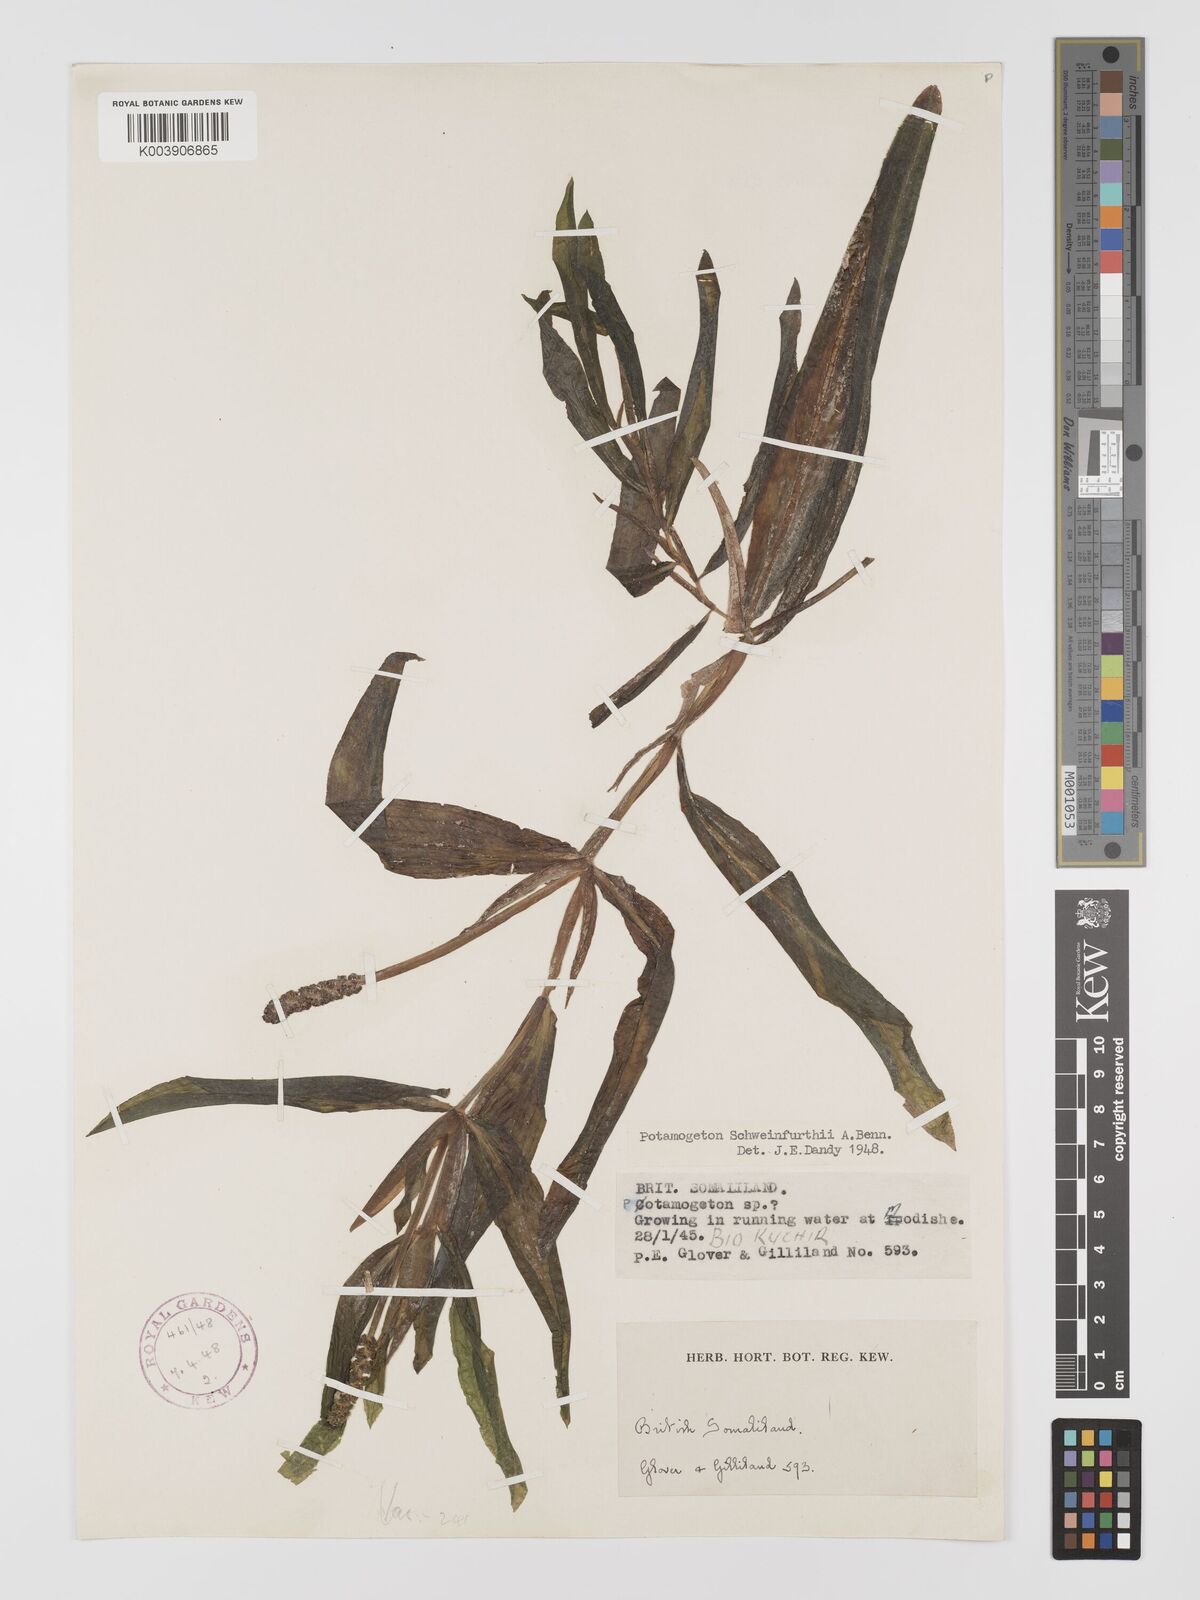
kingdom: Plantae
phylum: Tracheophyta
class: Liliopsida
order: Alismatales
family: Potamogetonaceae
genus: Potamogeton
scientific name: Potamogeton schweinfurthii
